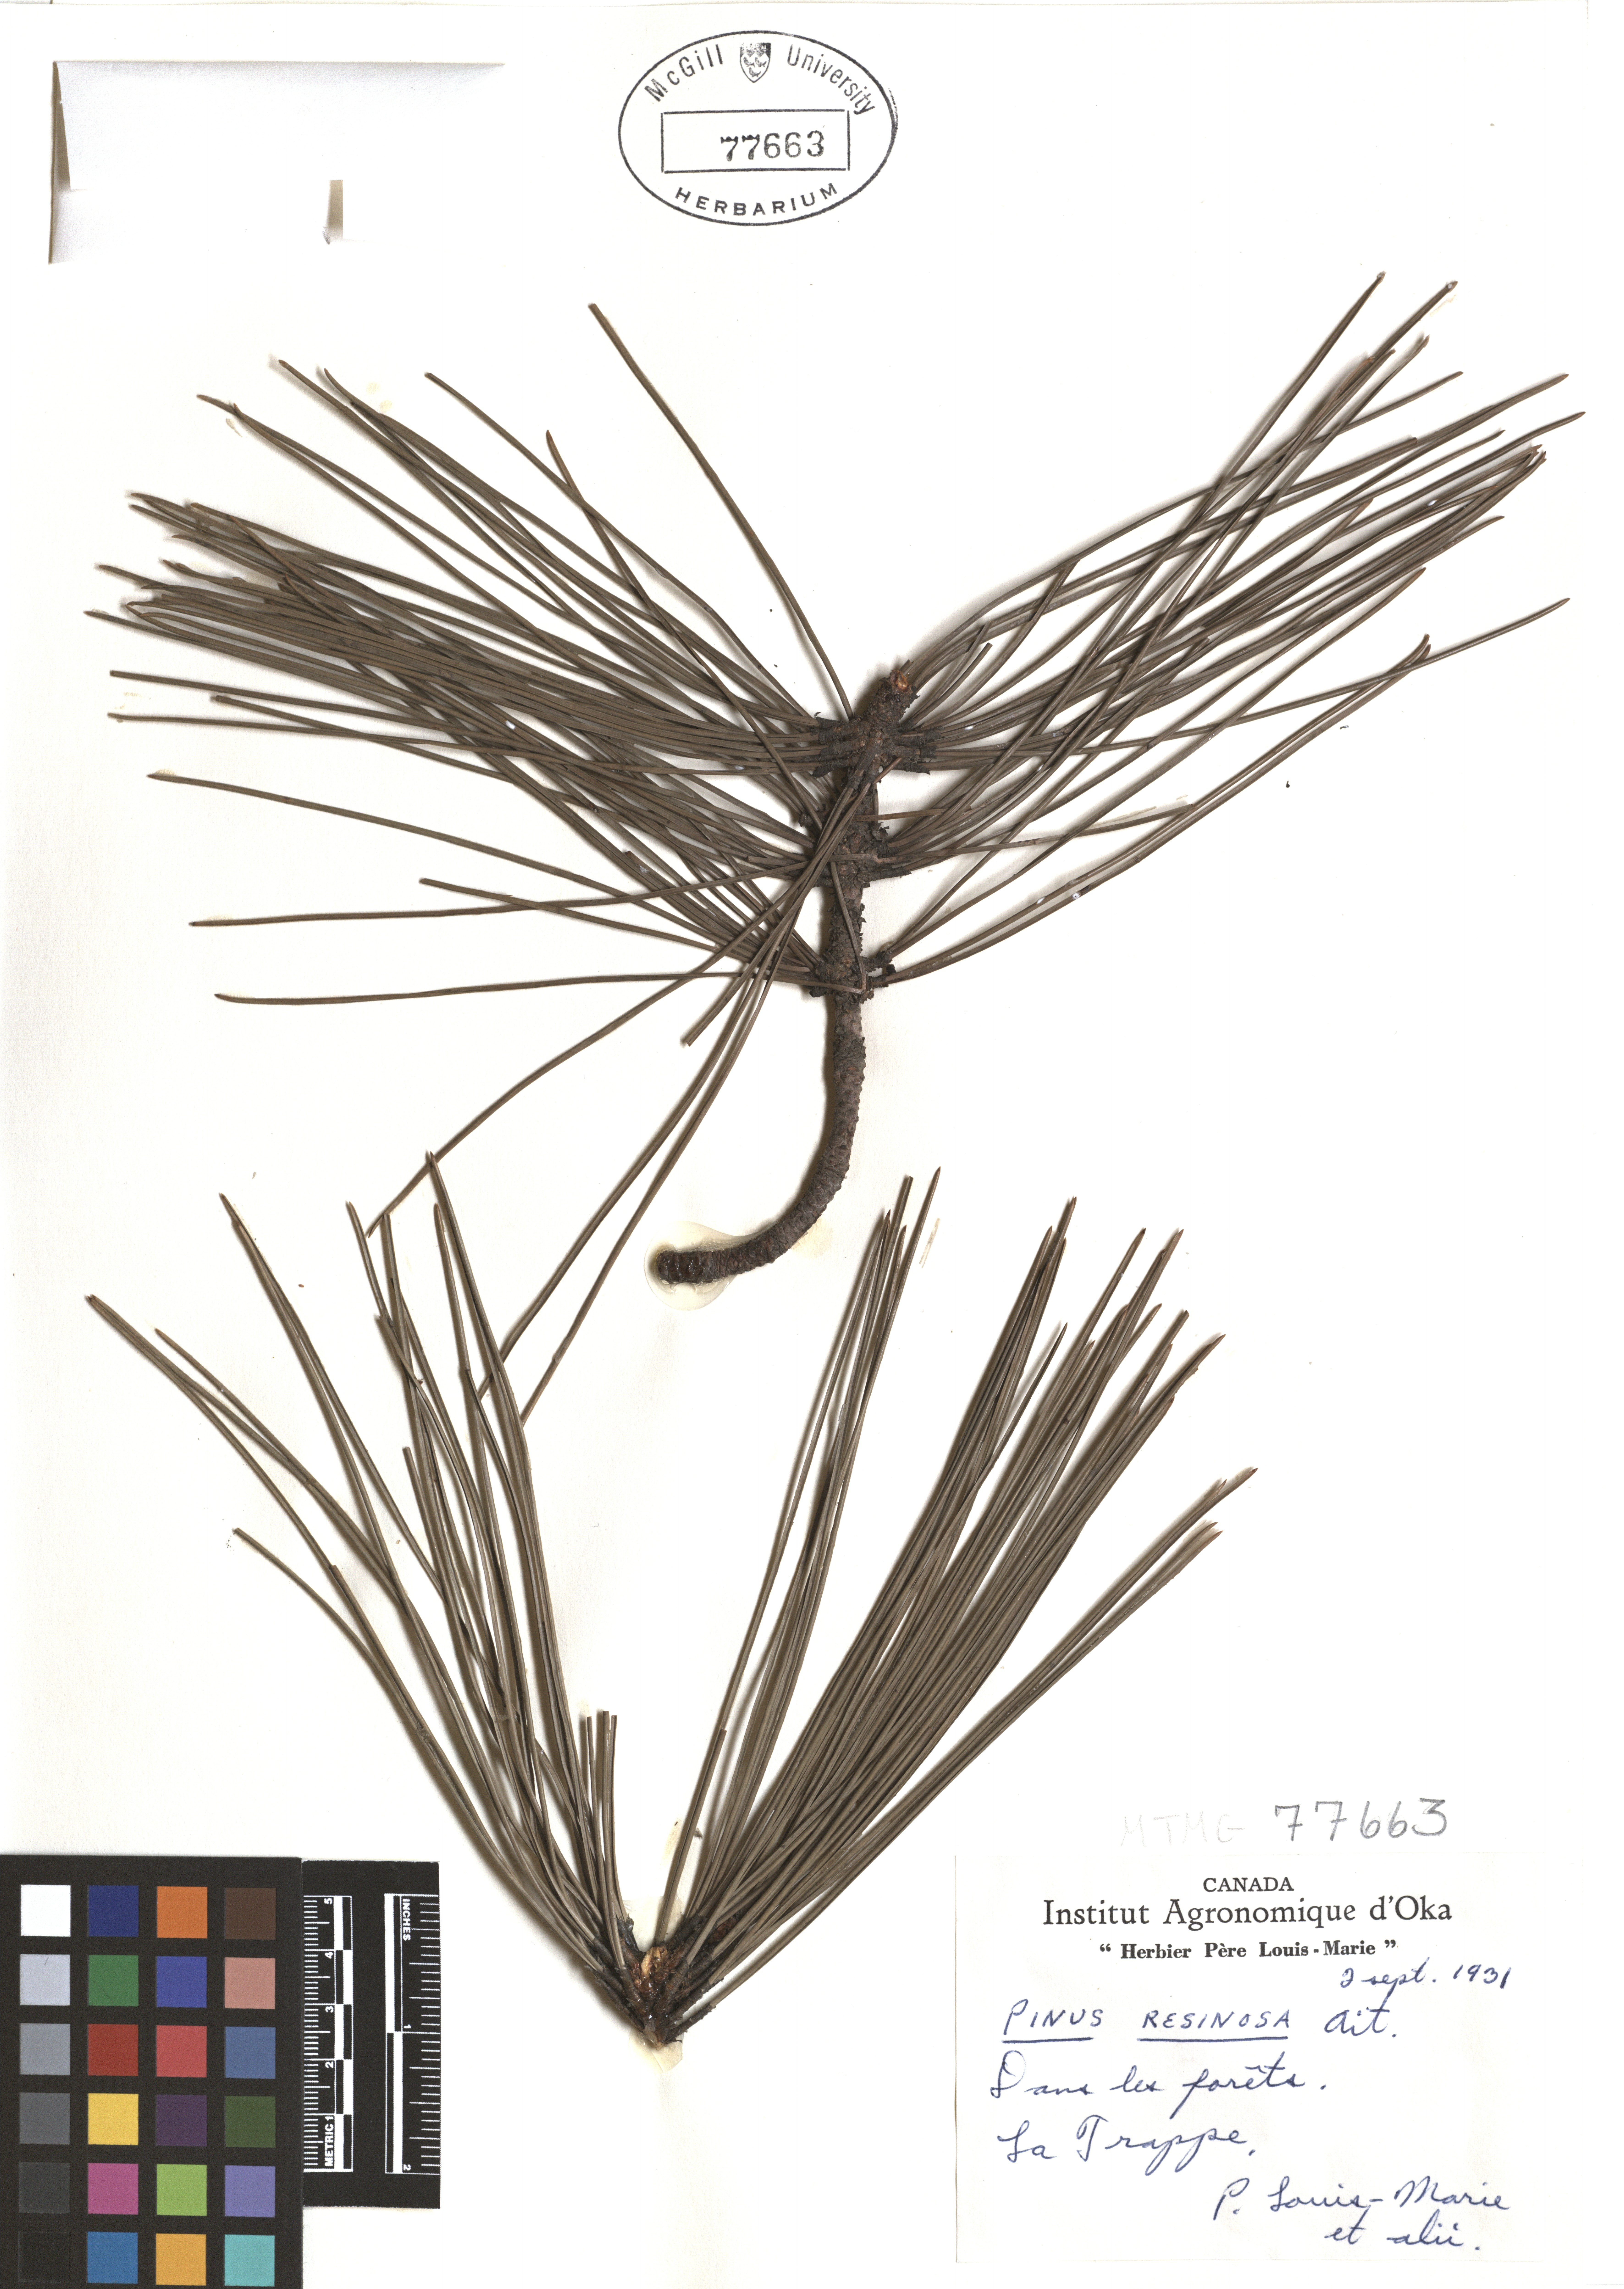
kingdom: Plantae
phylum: Tracheophyta
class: Pinopsida
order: Pinales
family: Pinaceae
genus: Pinus
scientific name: Pinus hartwegii
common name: Hartweg's pine
